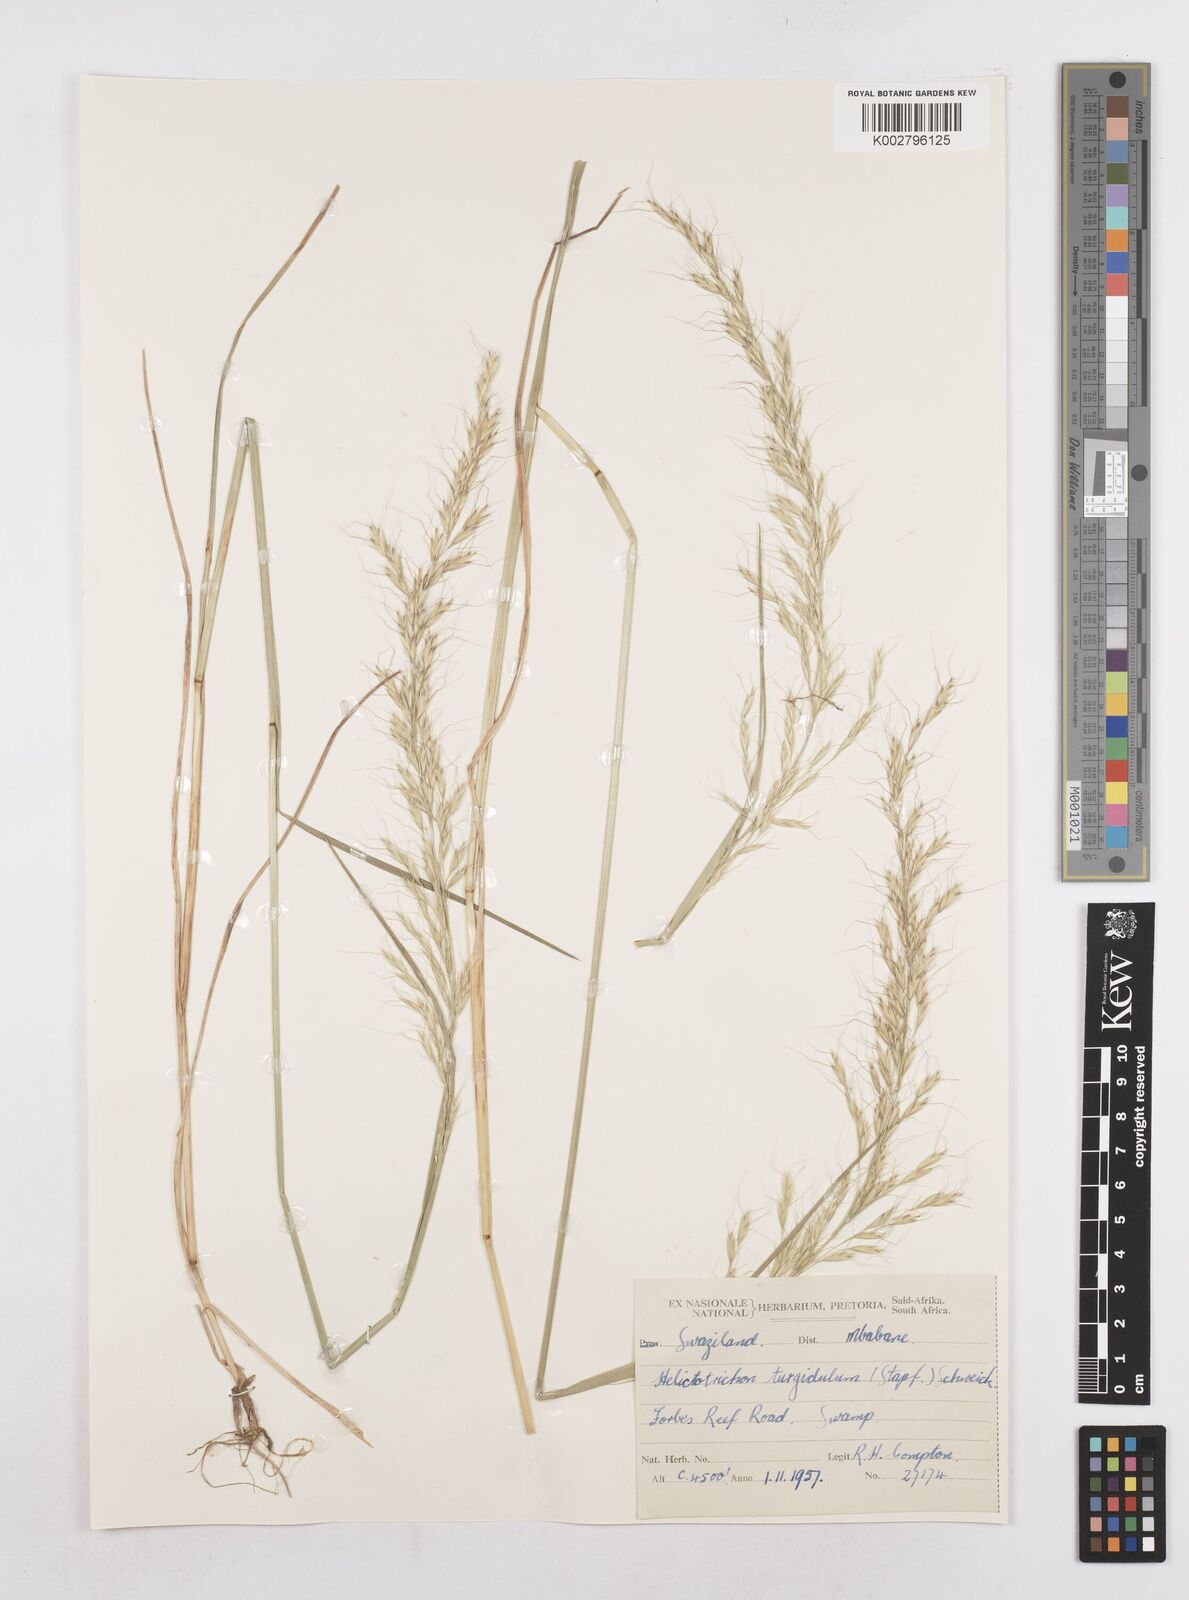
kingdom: Plantae
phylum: Tracheophyta
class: Liliopsida
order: Poales
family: Poaceae
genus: Trisetopsis
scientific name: Trisetopsis imberbis
